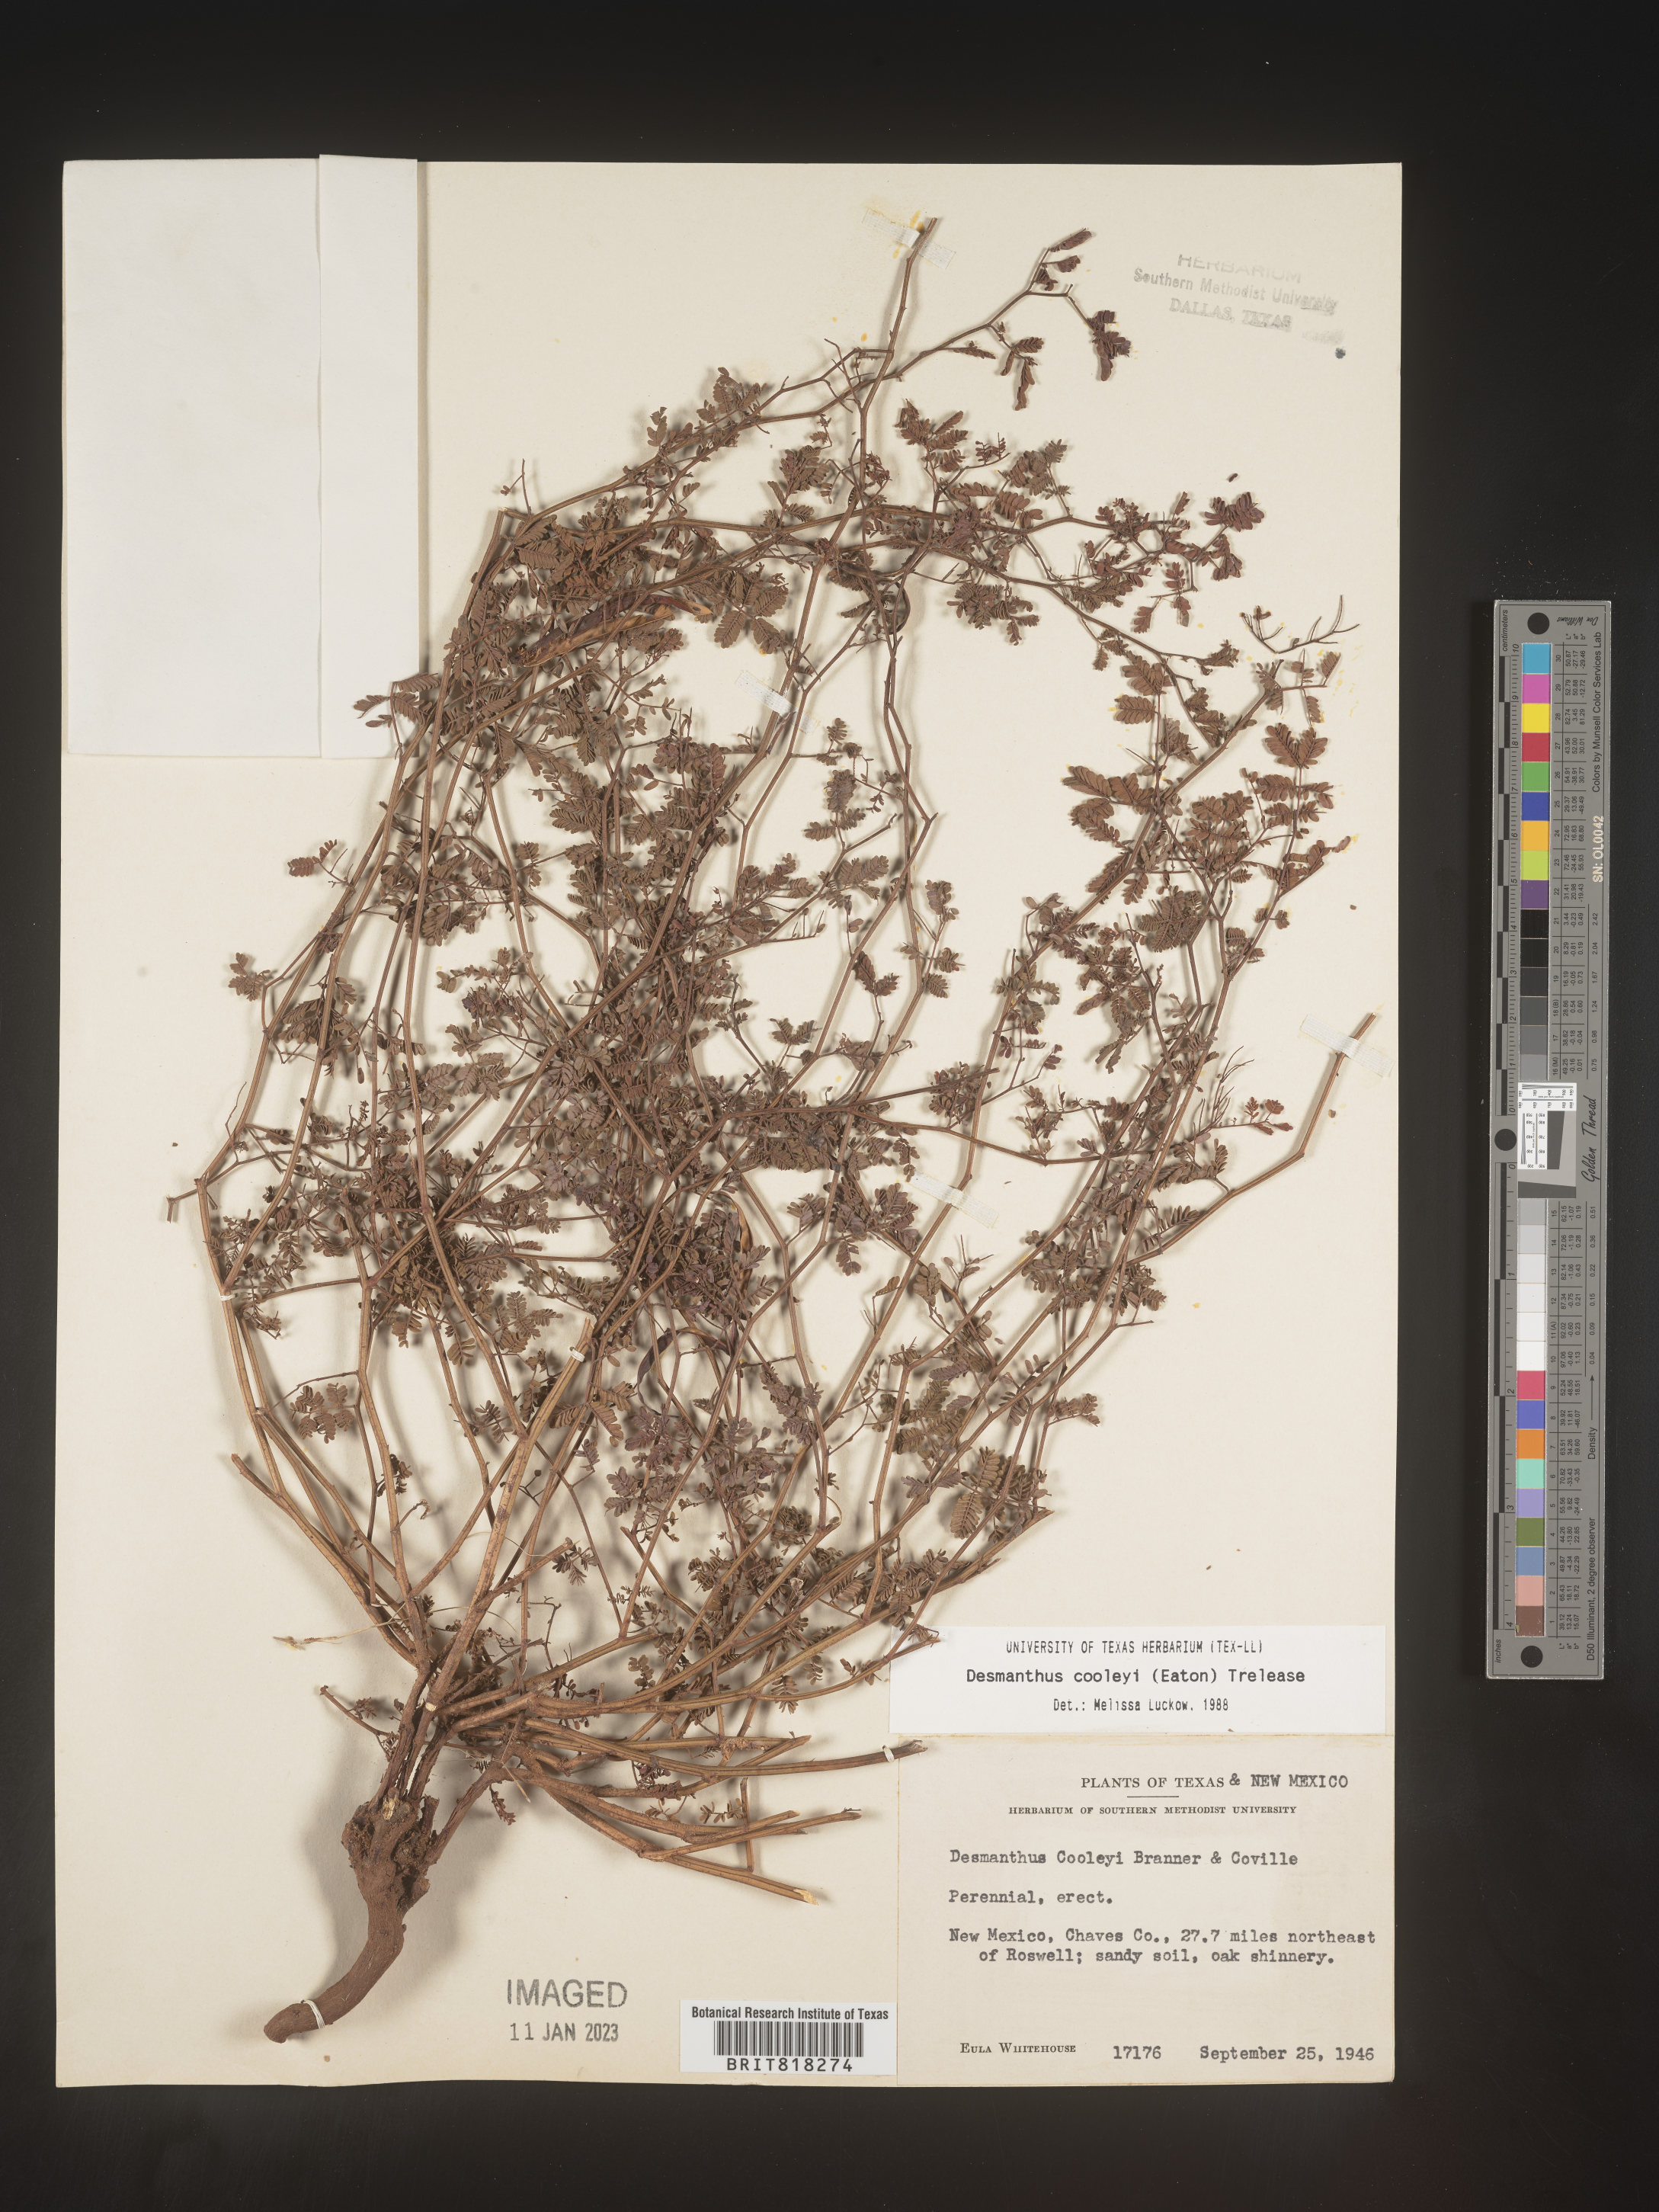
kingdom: Plantae
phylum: Tracheophyta
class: Magnoliopsida
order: Fabales
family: Fabaceae
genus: Desmanthus
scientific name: Desmanthus cooleyi
